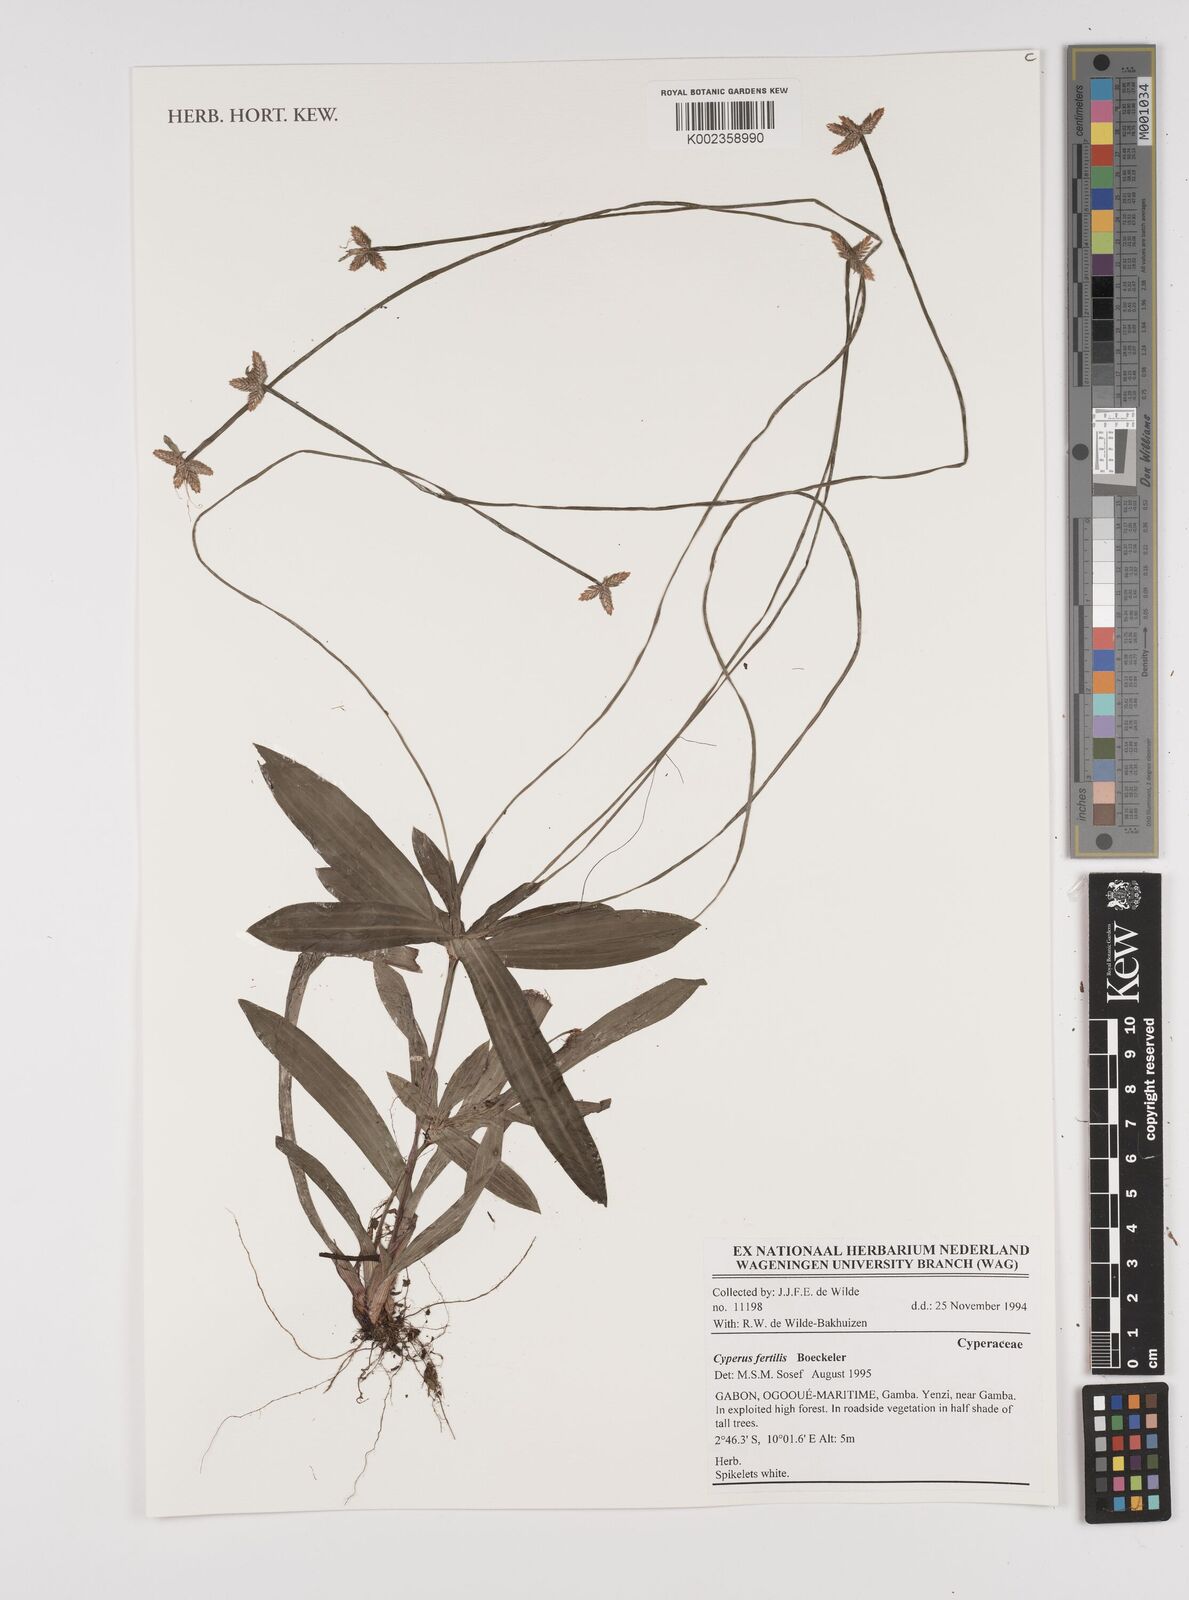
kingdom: Plantae
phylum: Tracheophyta
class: Liliopsida
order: Poales
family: Cyperaceae
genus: Cyperus
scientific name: Cyperus fertilis
